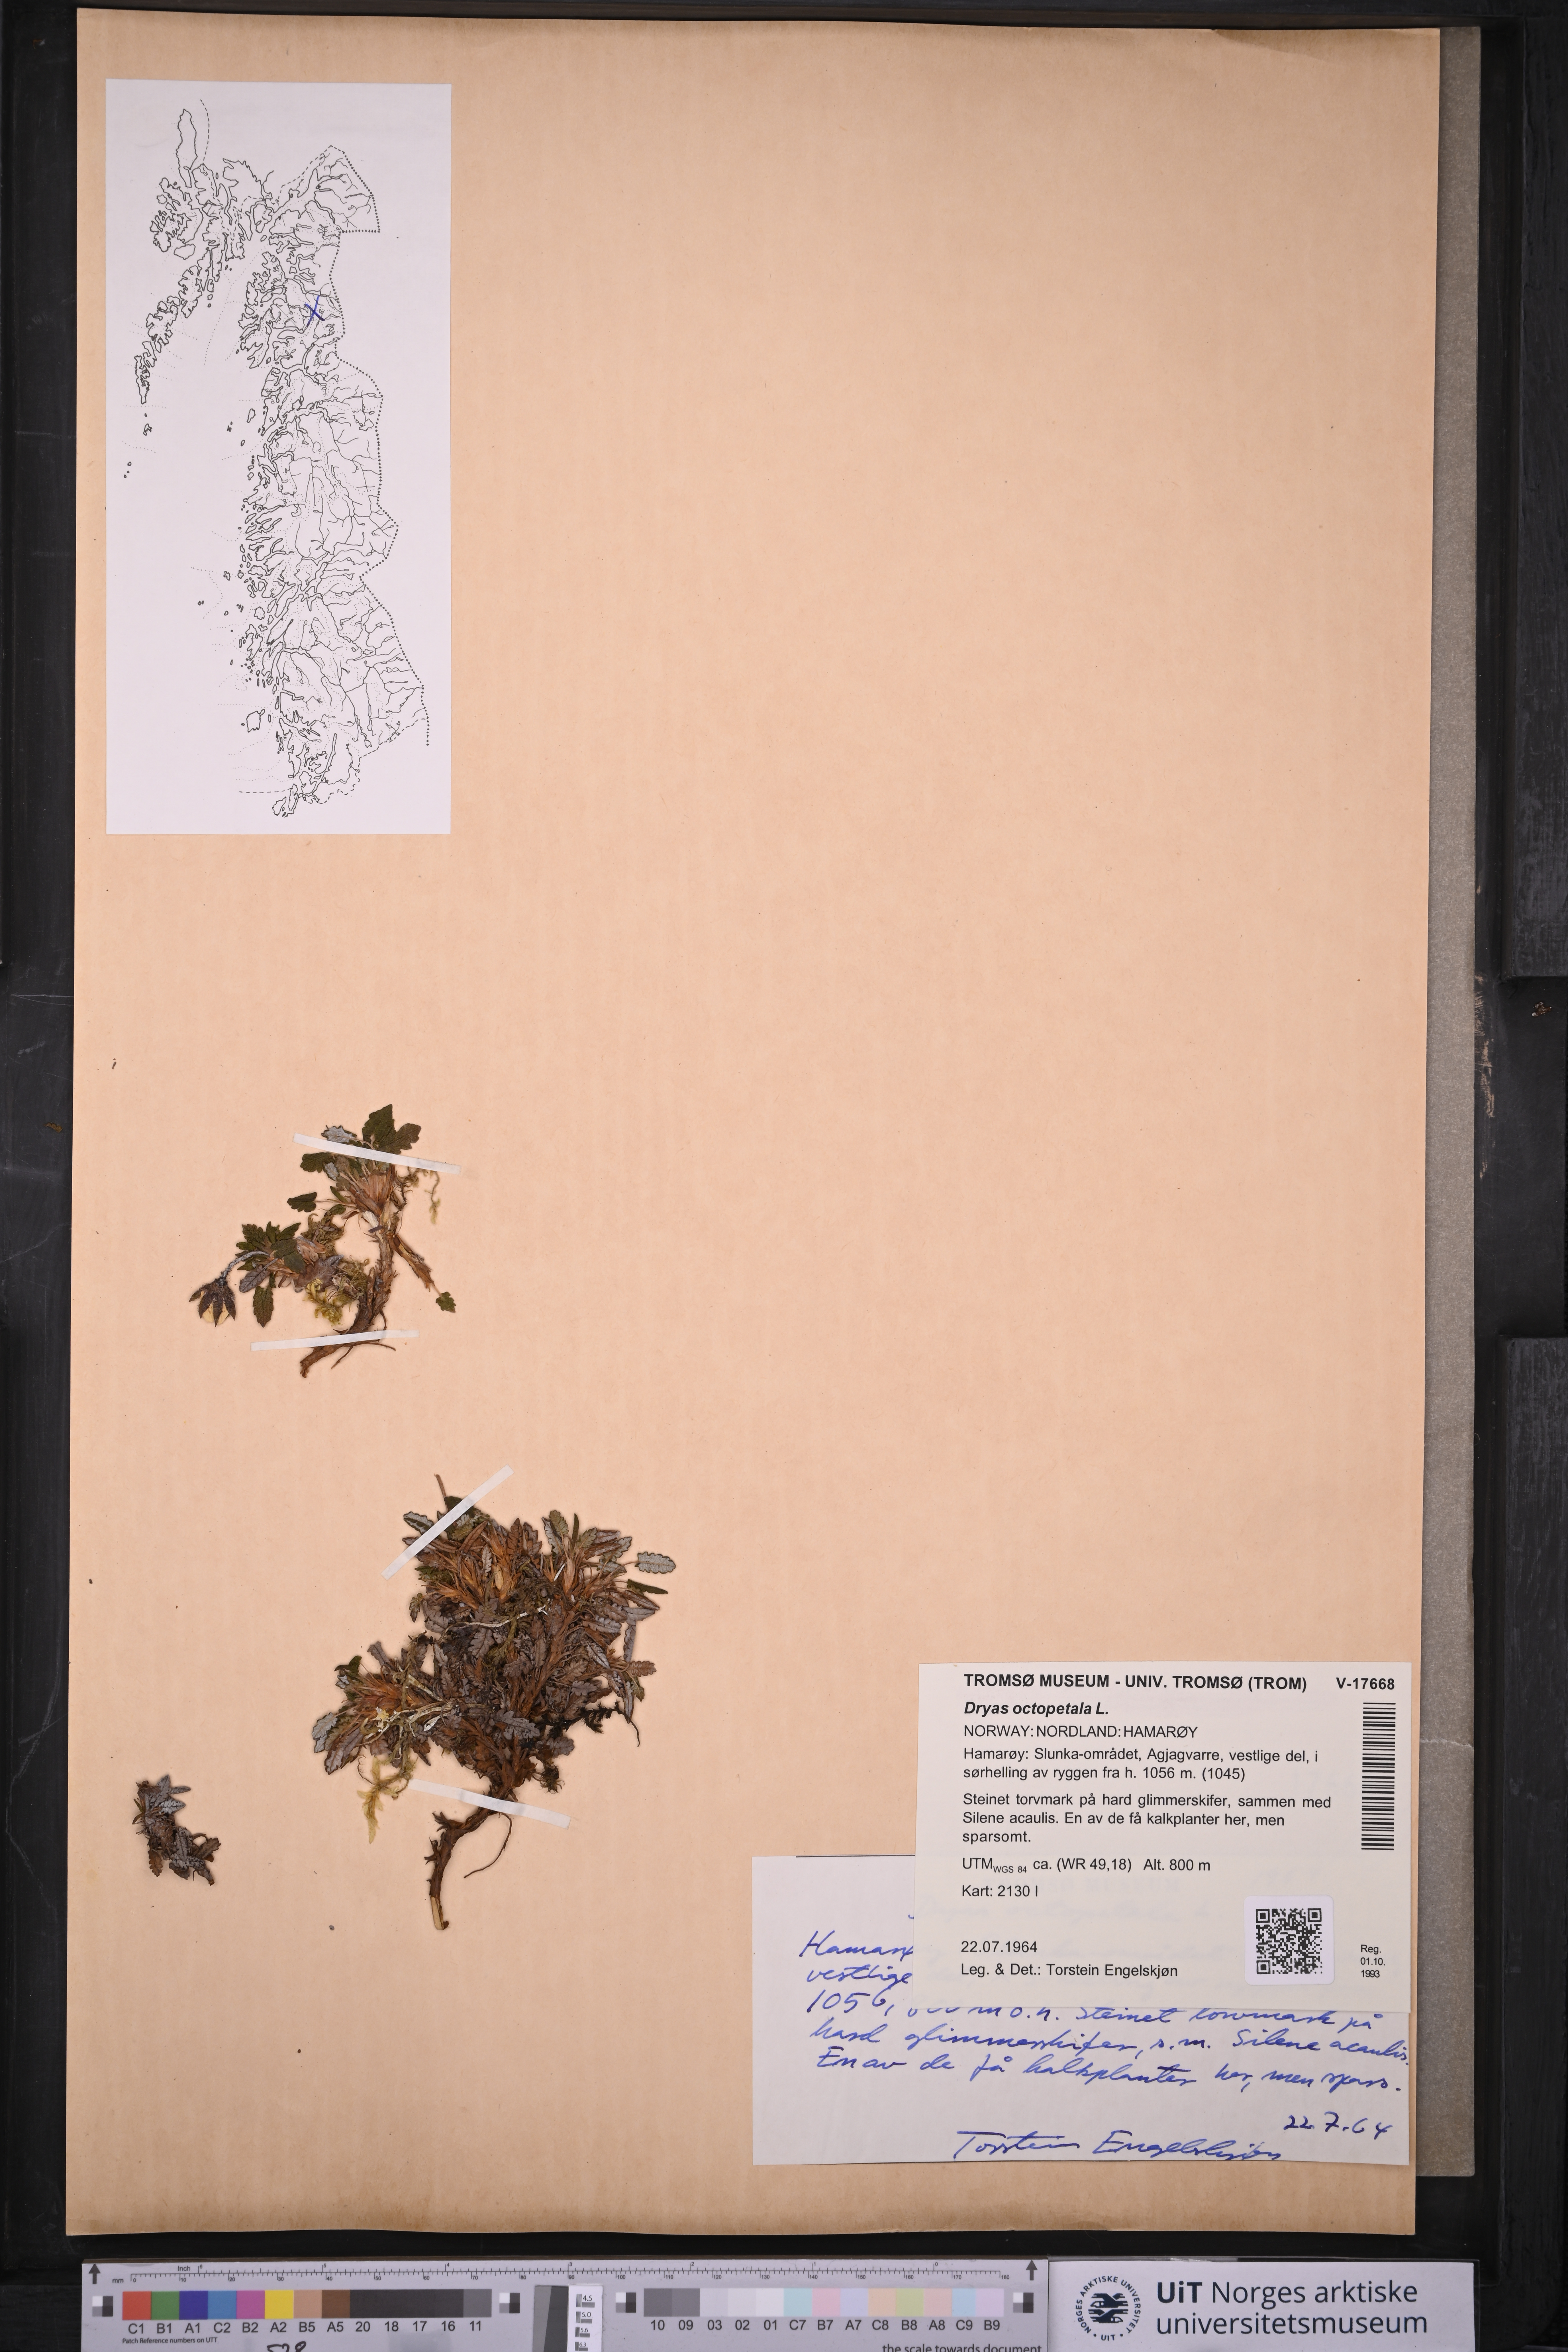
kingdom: Plantae
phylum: Tracheophyta
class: Magnoliopsida
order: Rosales
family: Rosaceae
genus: Dryas
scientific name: Dryas octopetala
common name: Eight-petal mountain-avens
